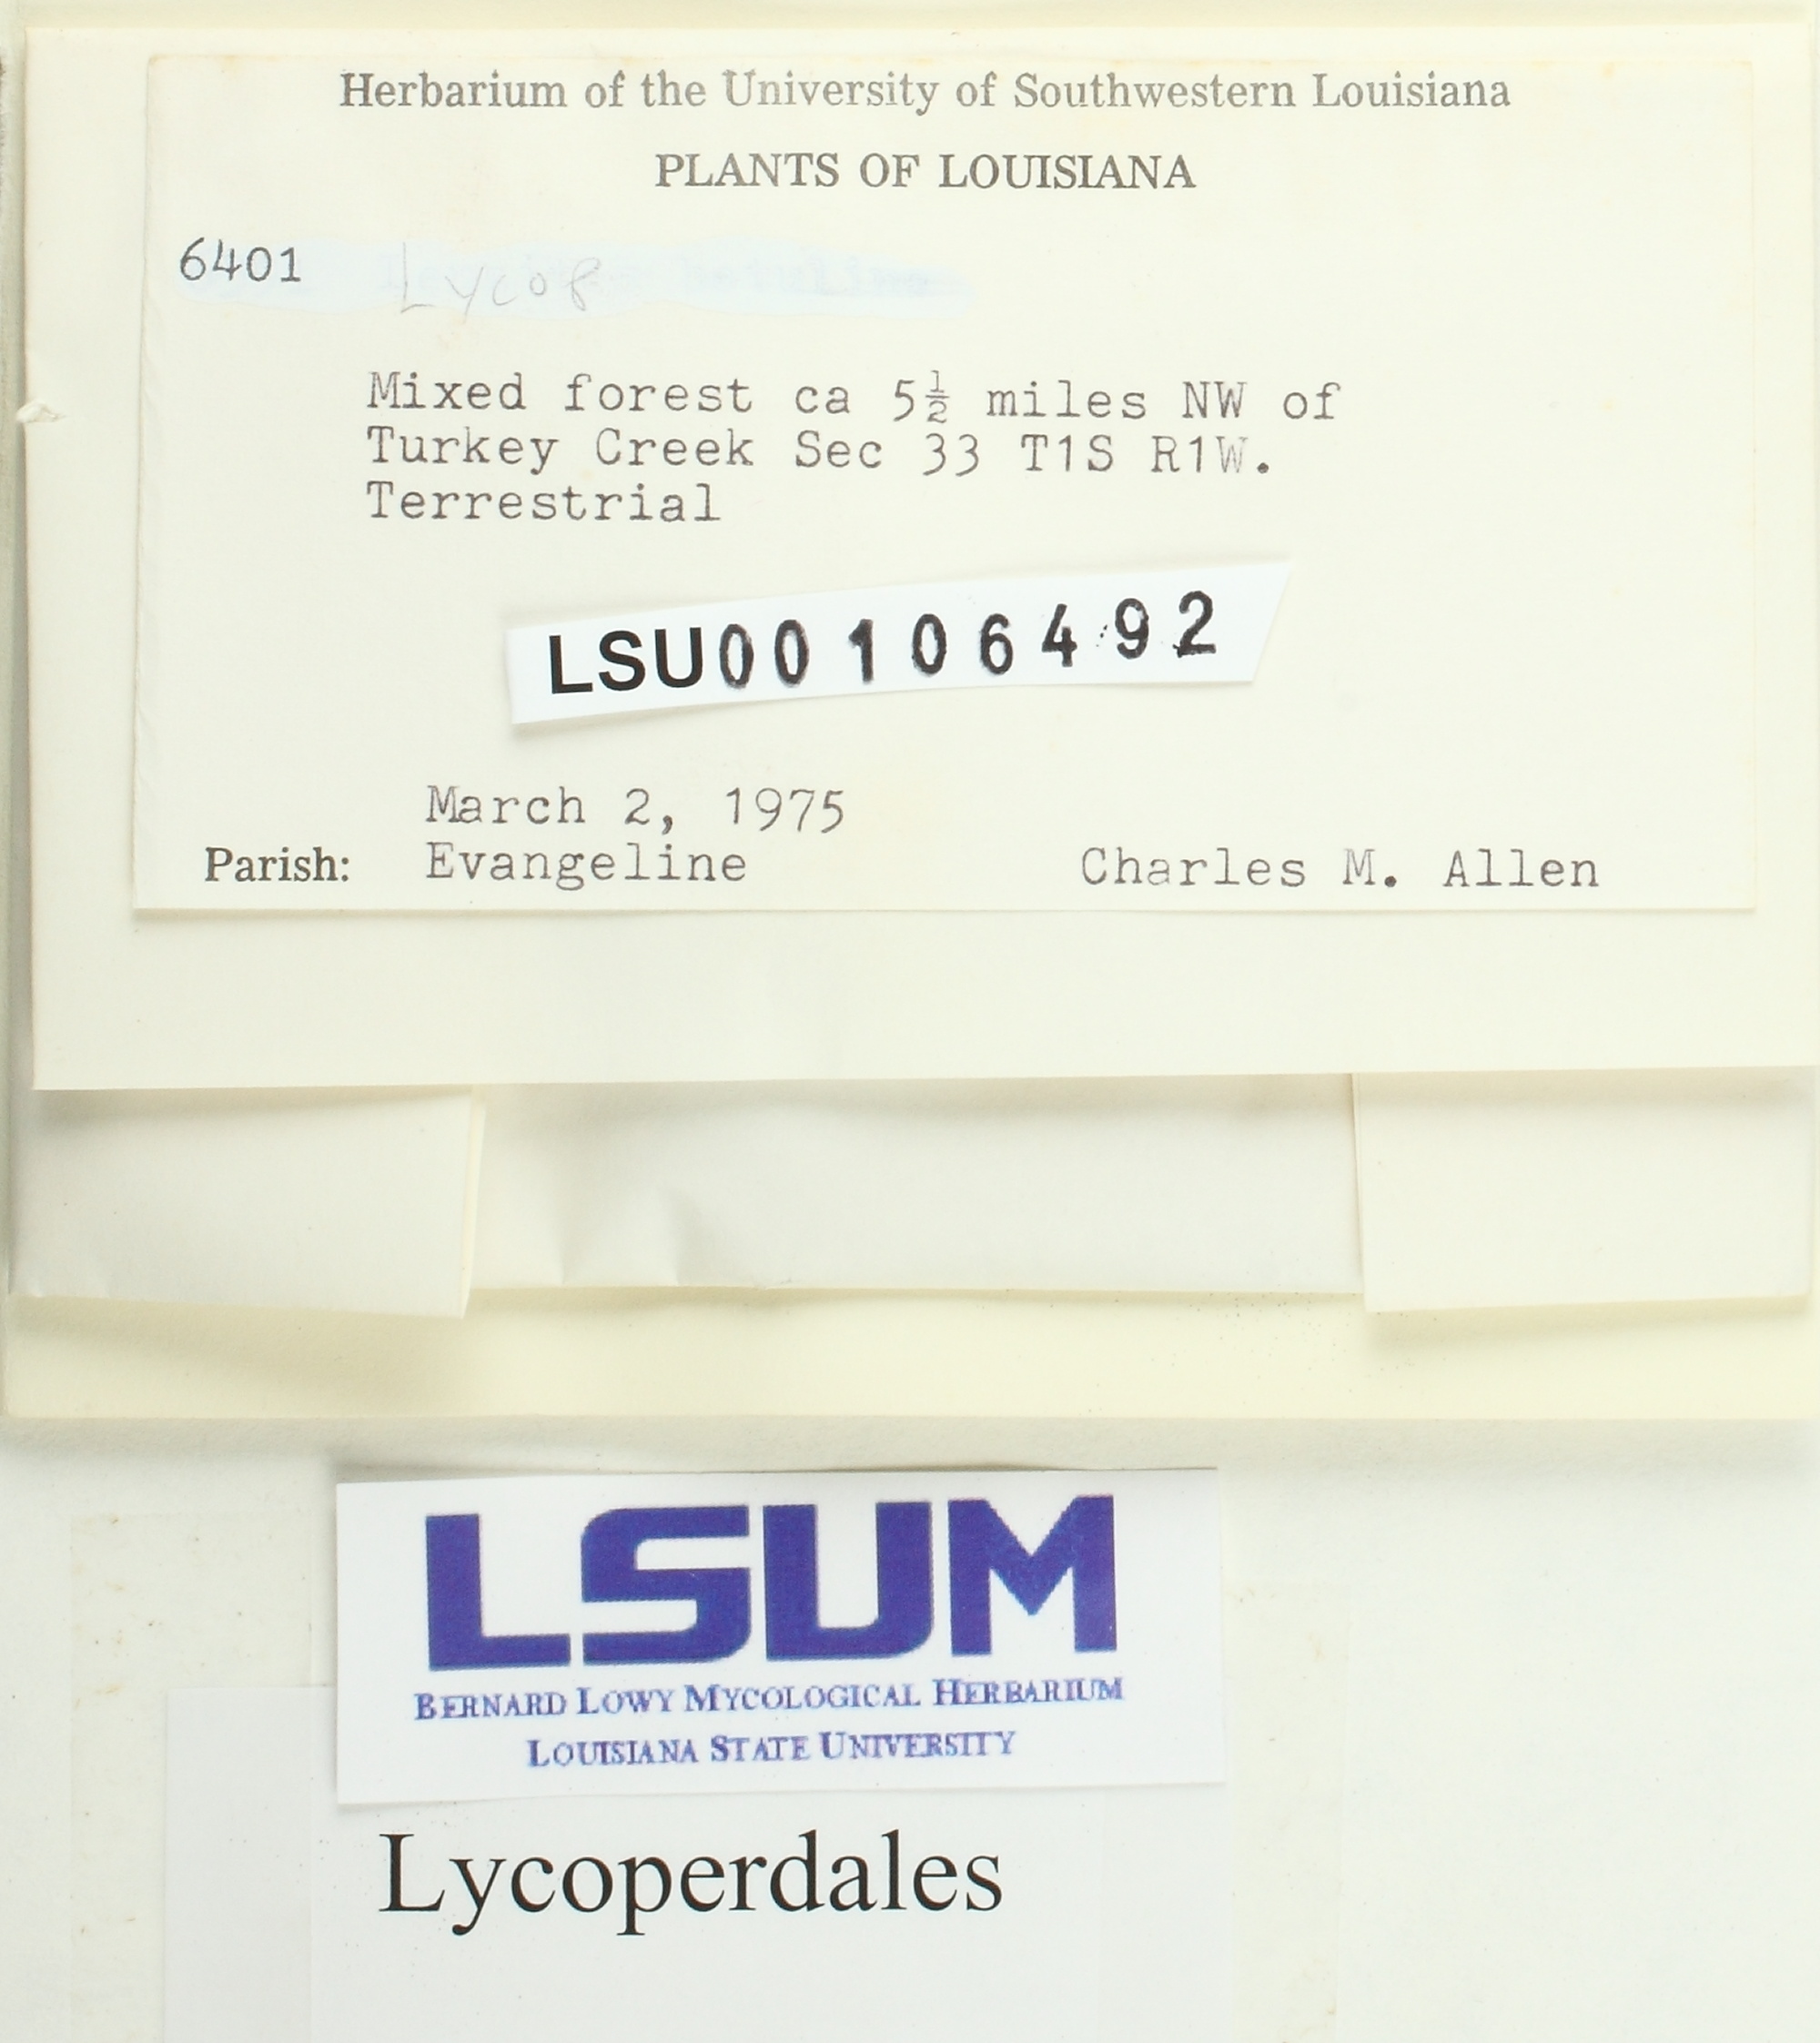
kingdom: Fungi
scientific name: Fungi
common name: Fungi
